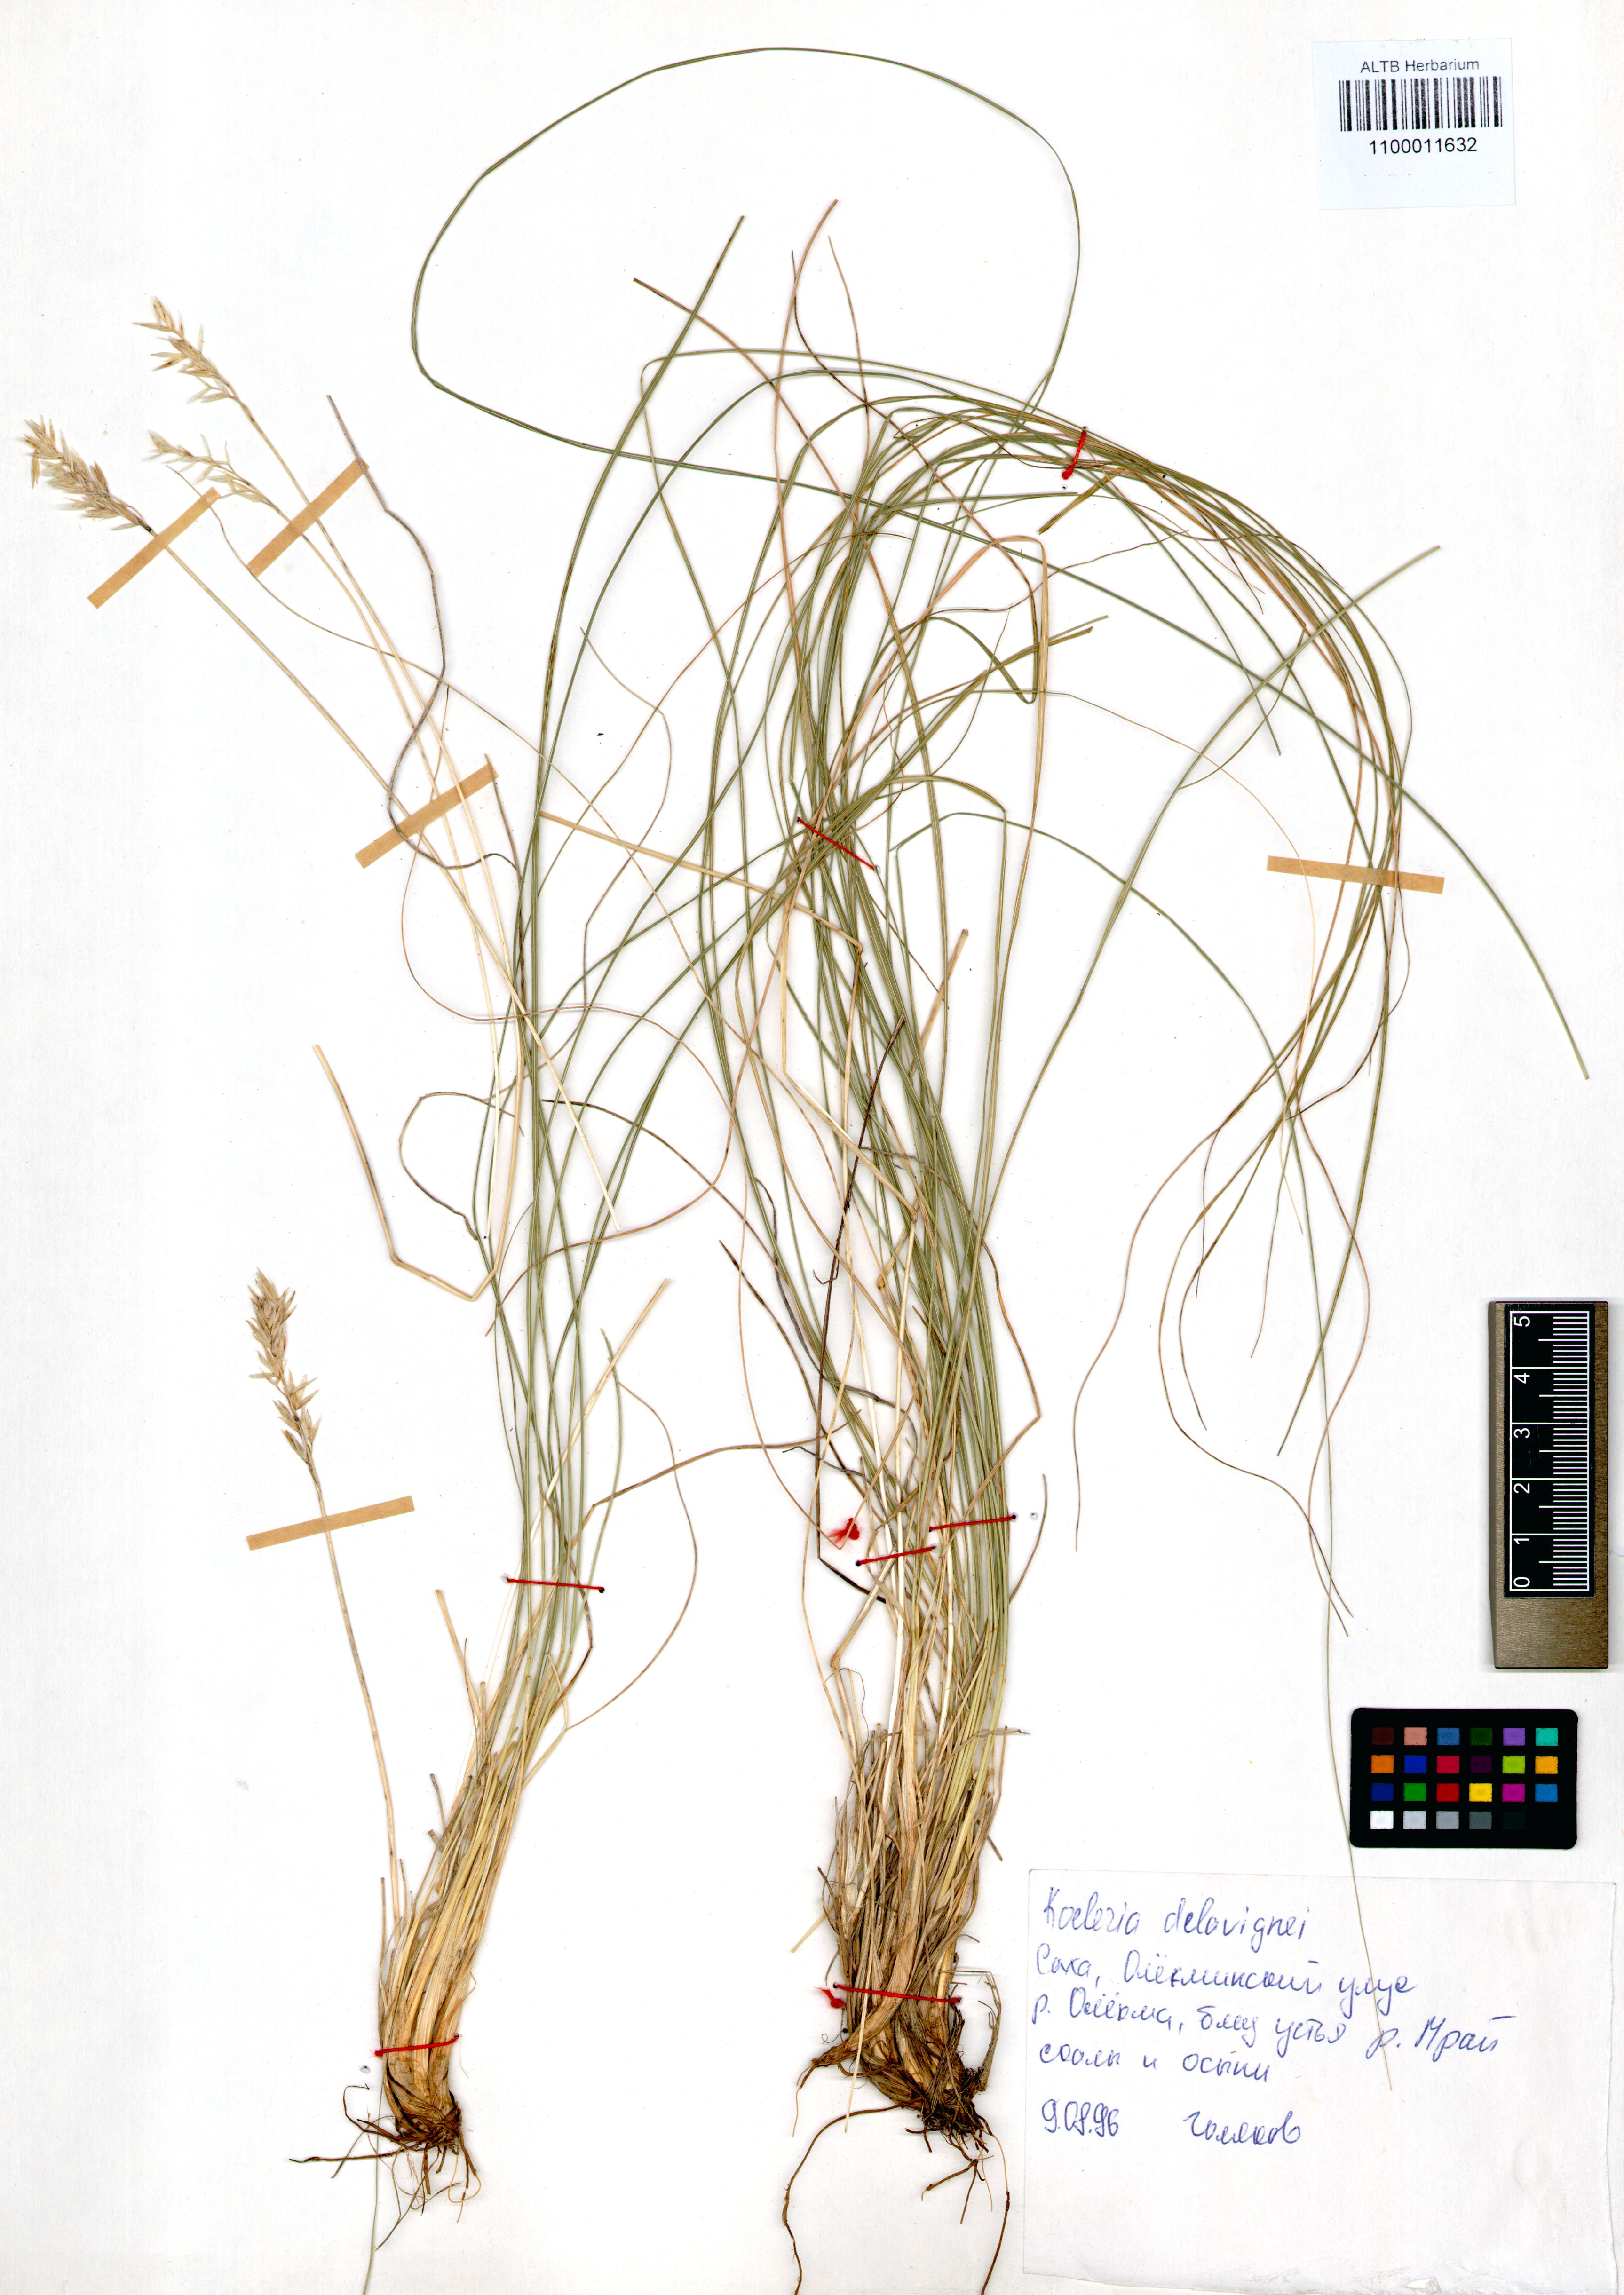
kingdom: Plantae
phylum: Tracheophyta
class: Liliopsida
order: Poales
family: Poaceae
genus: Koeleria
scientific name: Koeleria delavignei
